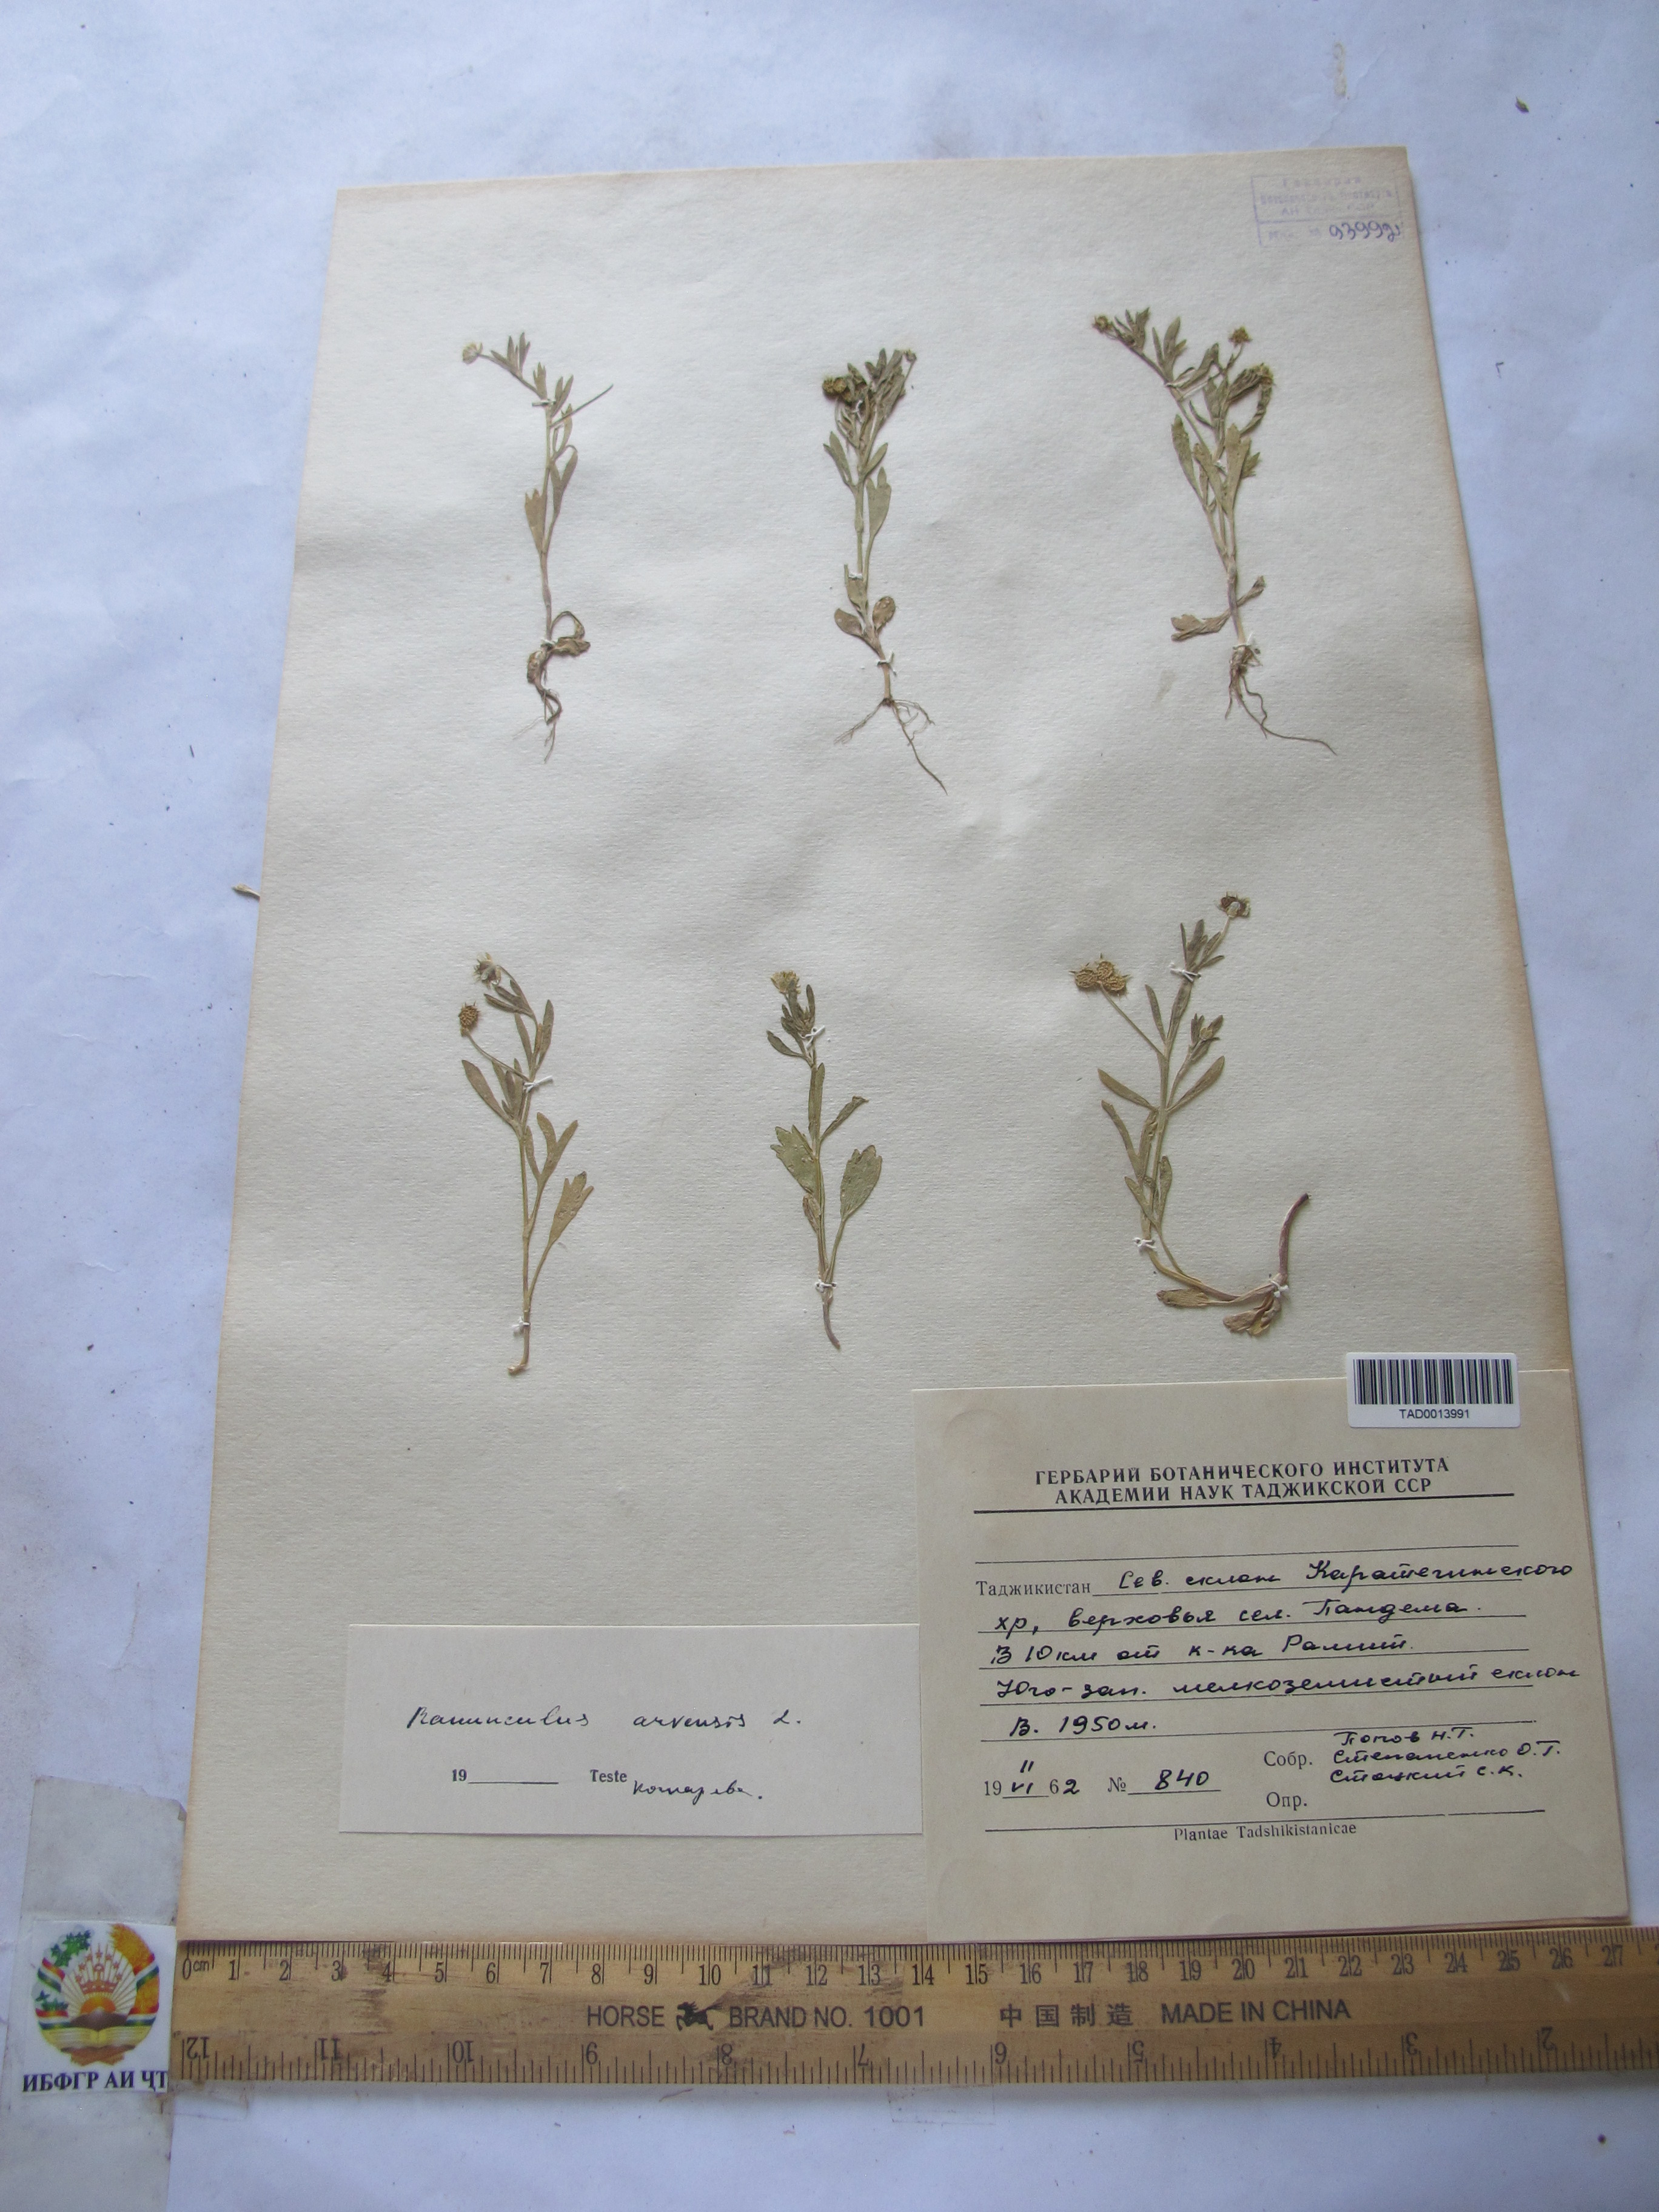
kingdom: Plantae
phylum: Tracheophyta
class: Magnoliopsida
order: Ranunculales
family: Ranunculaceae
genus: Ranunculus
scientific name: Ranunculus arvensis
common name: Corn buttercup
